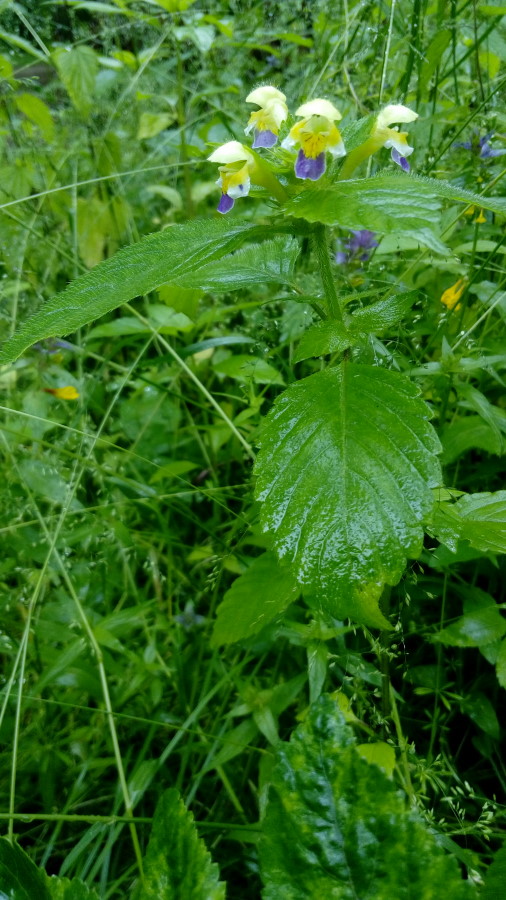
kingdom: Plantae
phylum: Tracheophyta
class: Magnoliopsida
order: Lamiales
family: Lamiaceae
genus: Galeopsis
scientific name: Galeopsis speciosa
